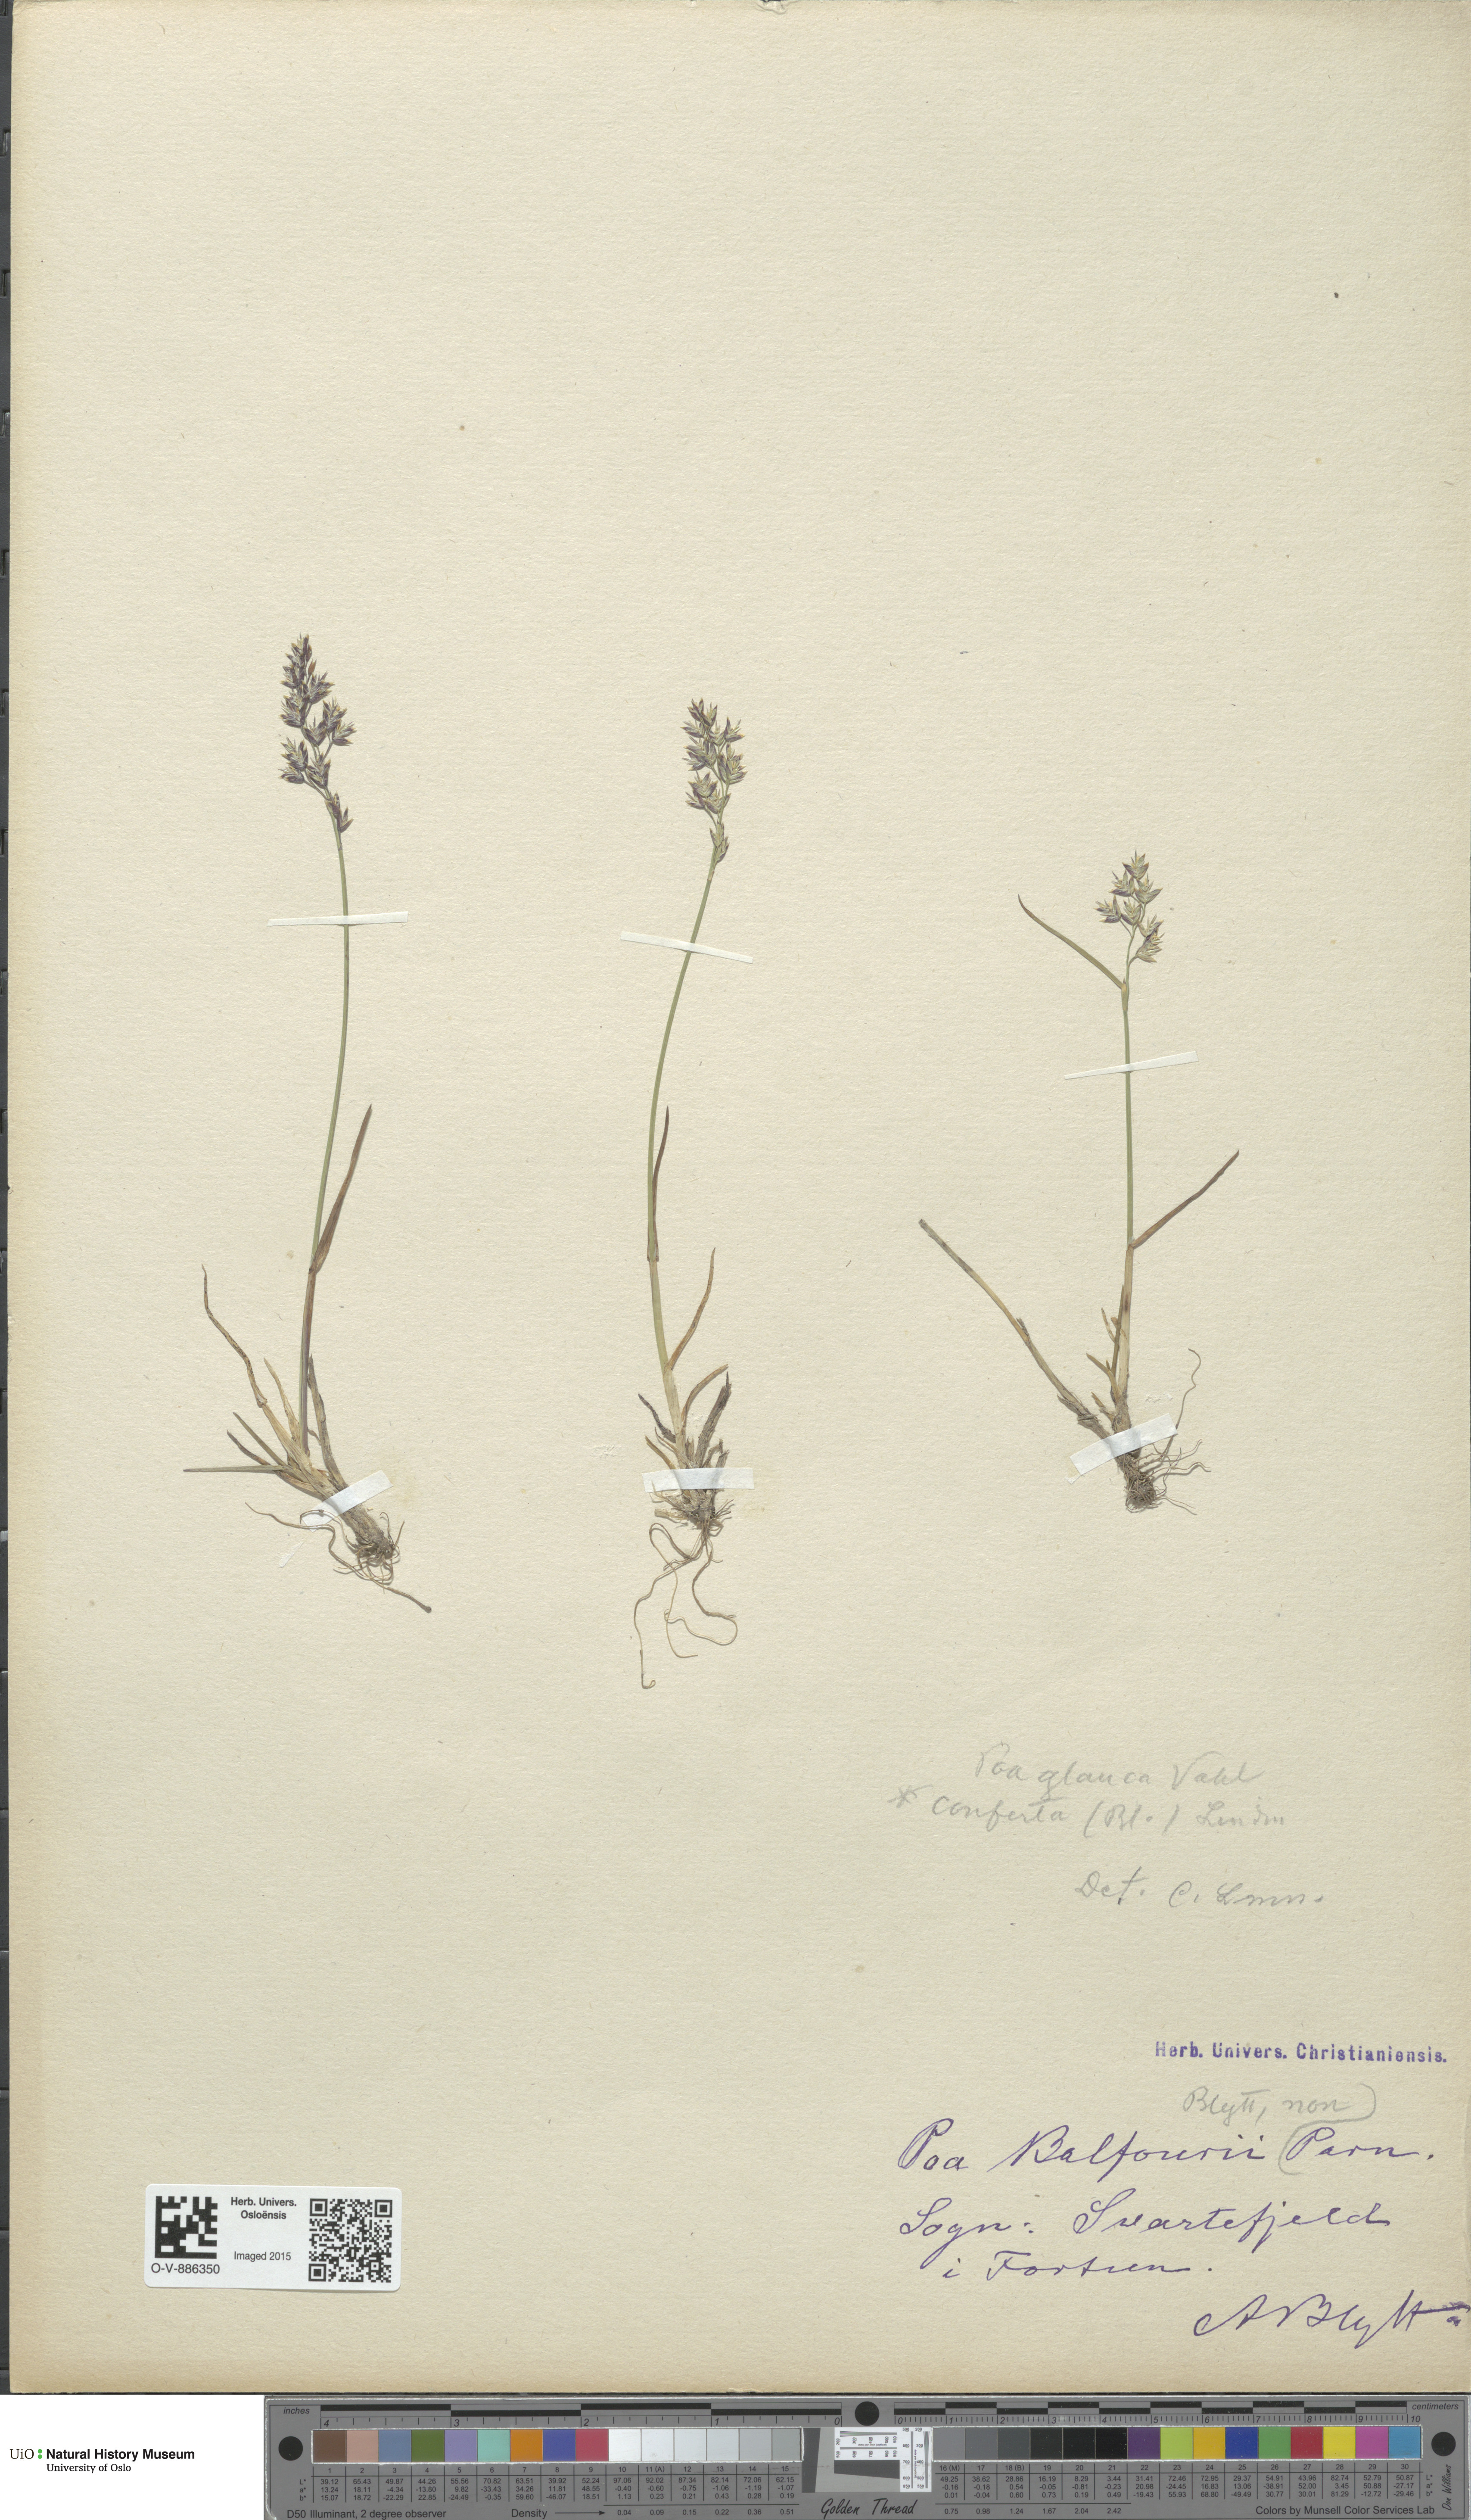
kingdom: Plantae
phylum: Tracheophyta
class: Liliopsida
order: Poales
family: Poaceae
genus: Poa
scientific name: Poa glauca
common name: Glaucous bluegrass
